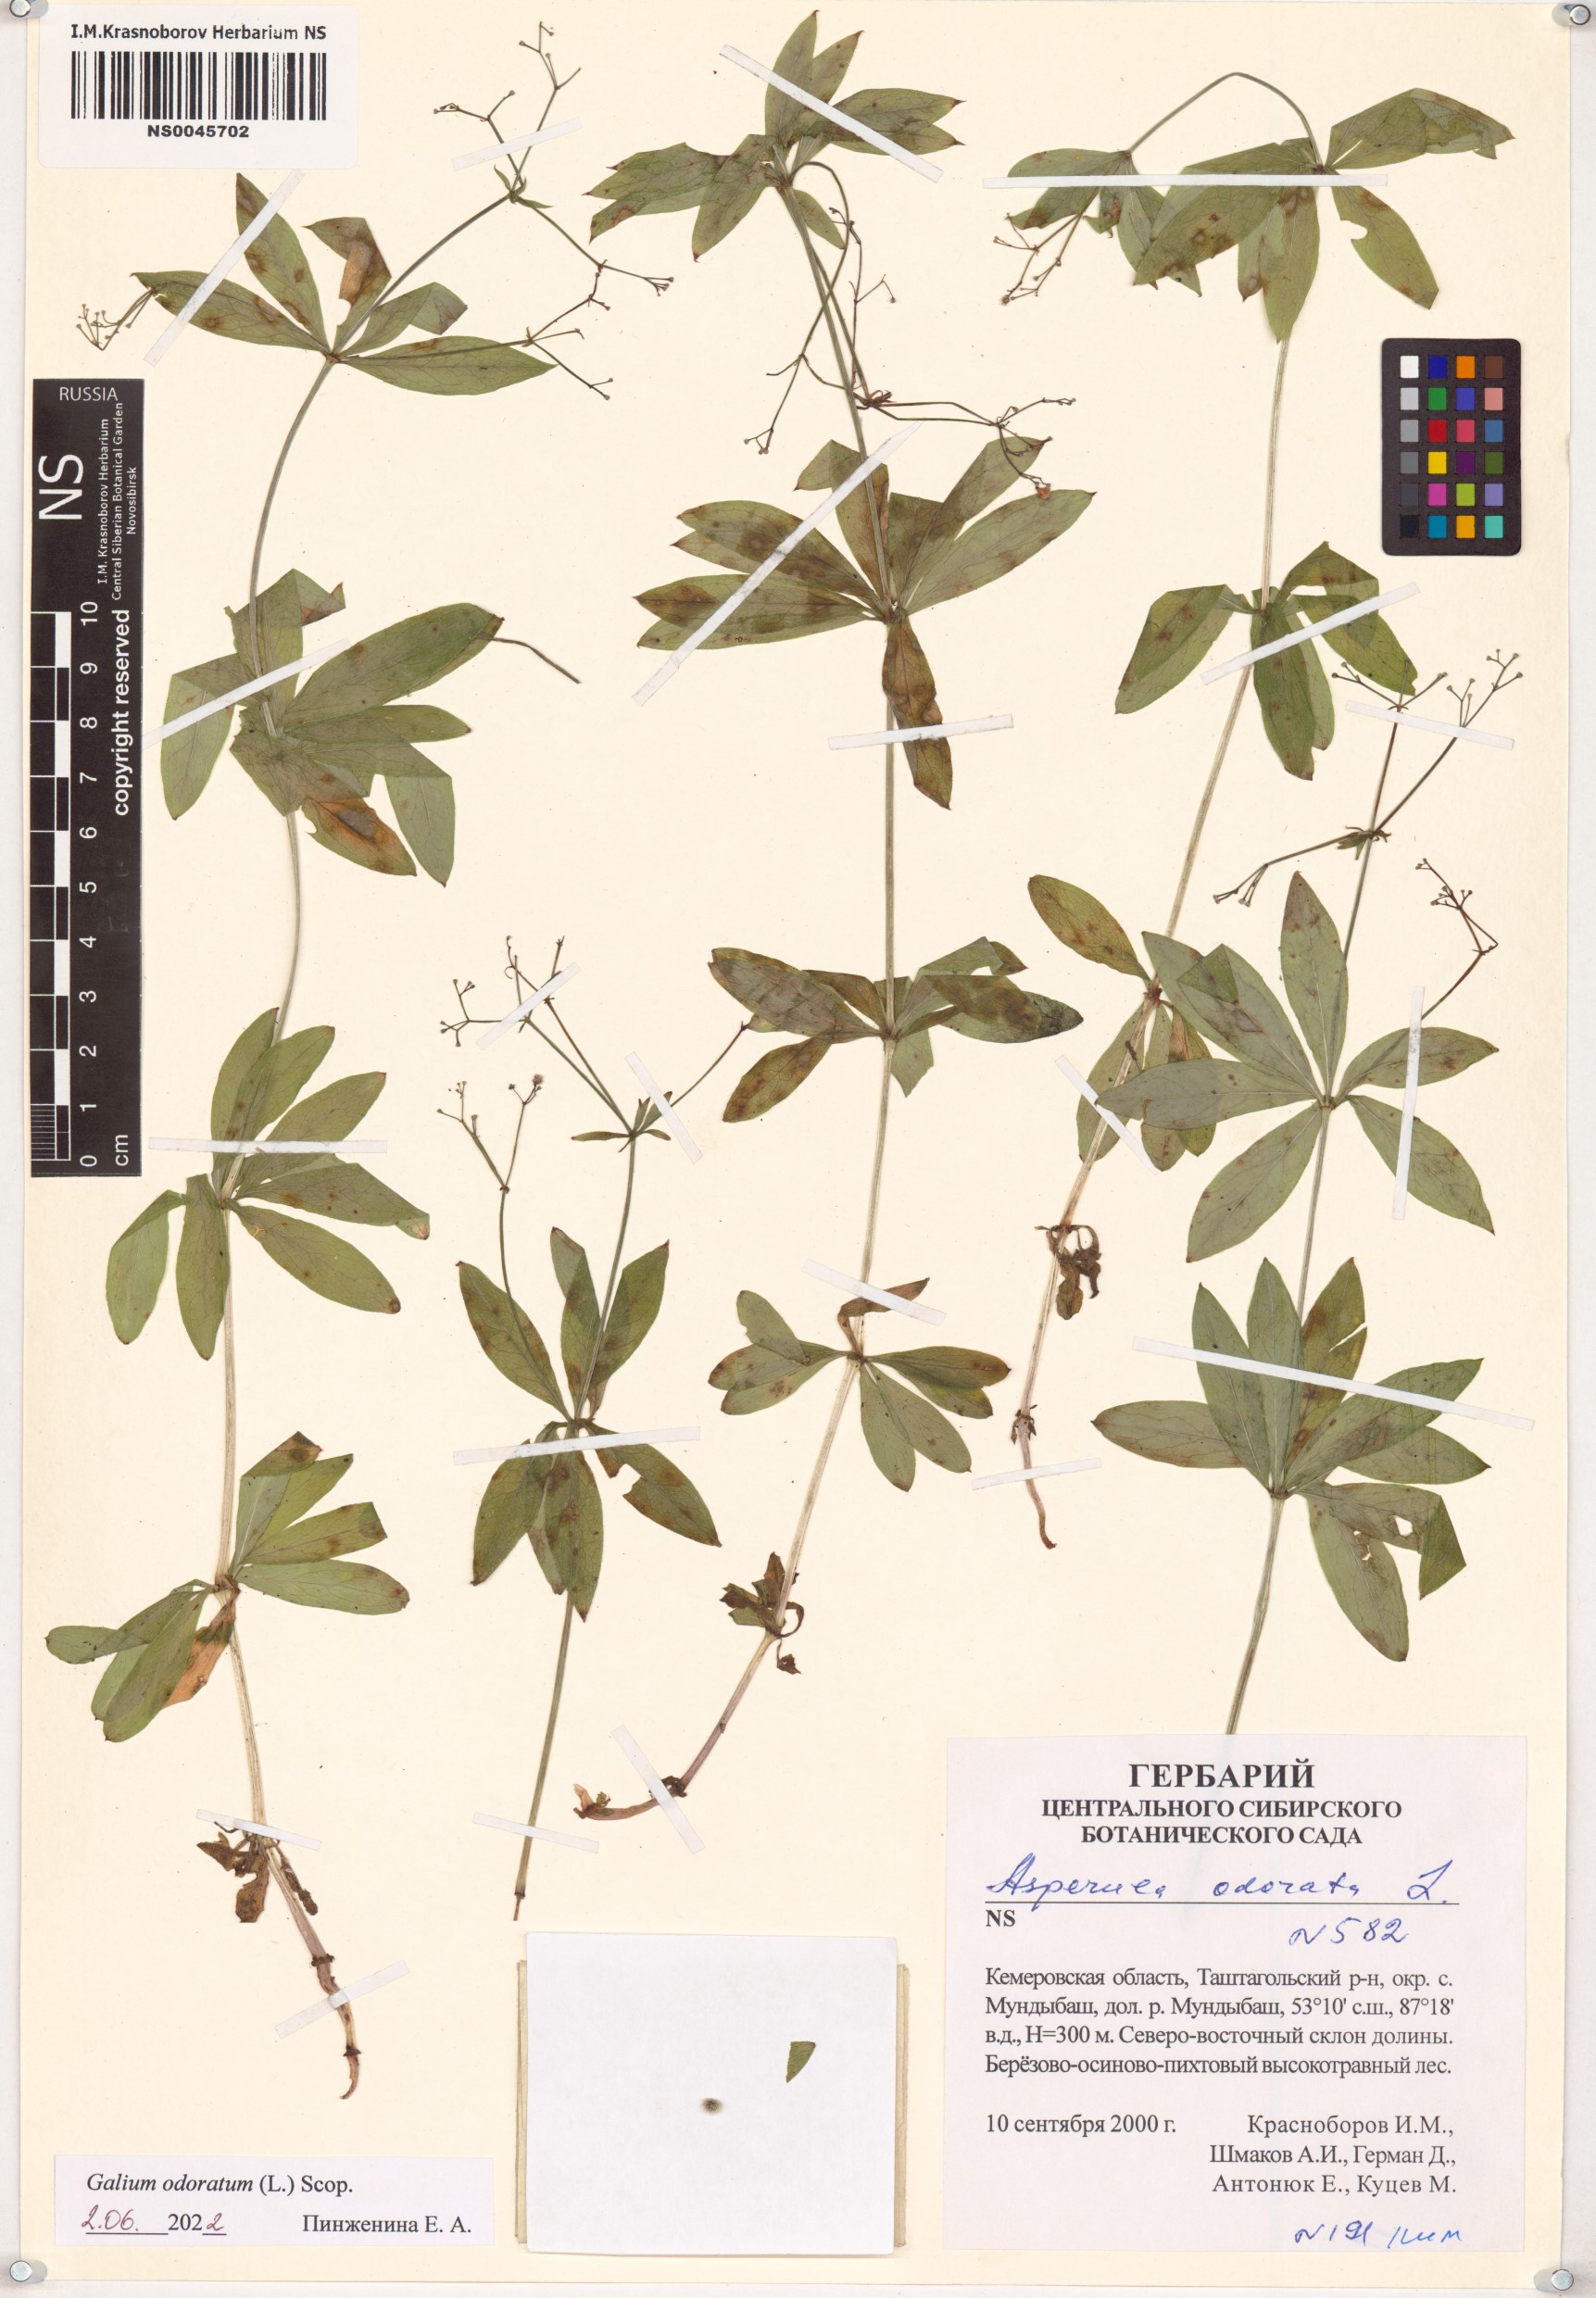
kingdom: Plantae
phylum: Tracheophyta
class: Magnoliopsida
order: Gentianales
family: Rubiaceae
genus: Galium
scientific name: Galium odoratum
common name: Sweet woodruff
